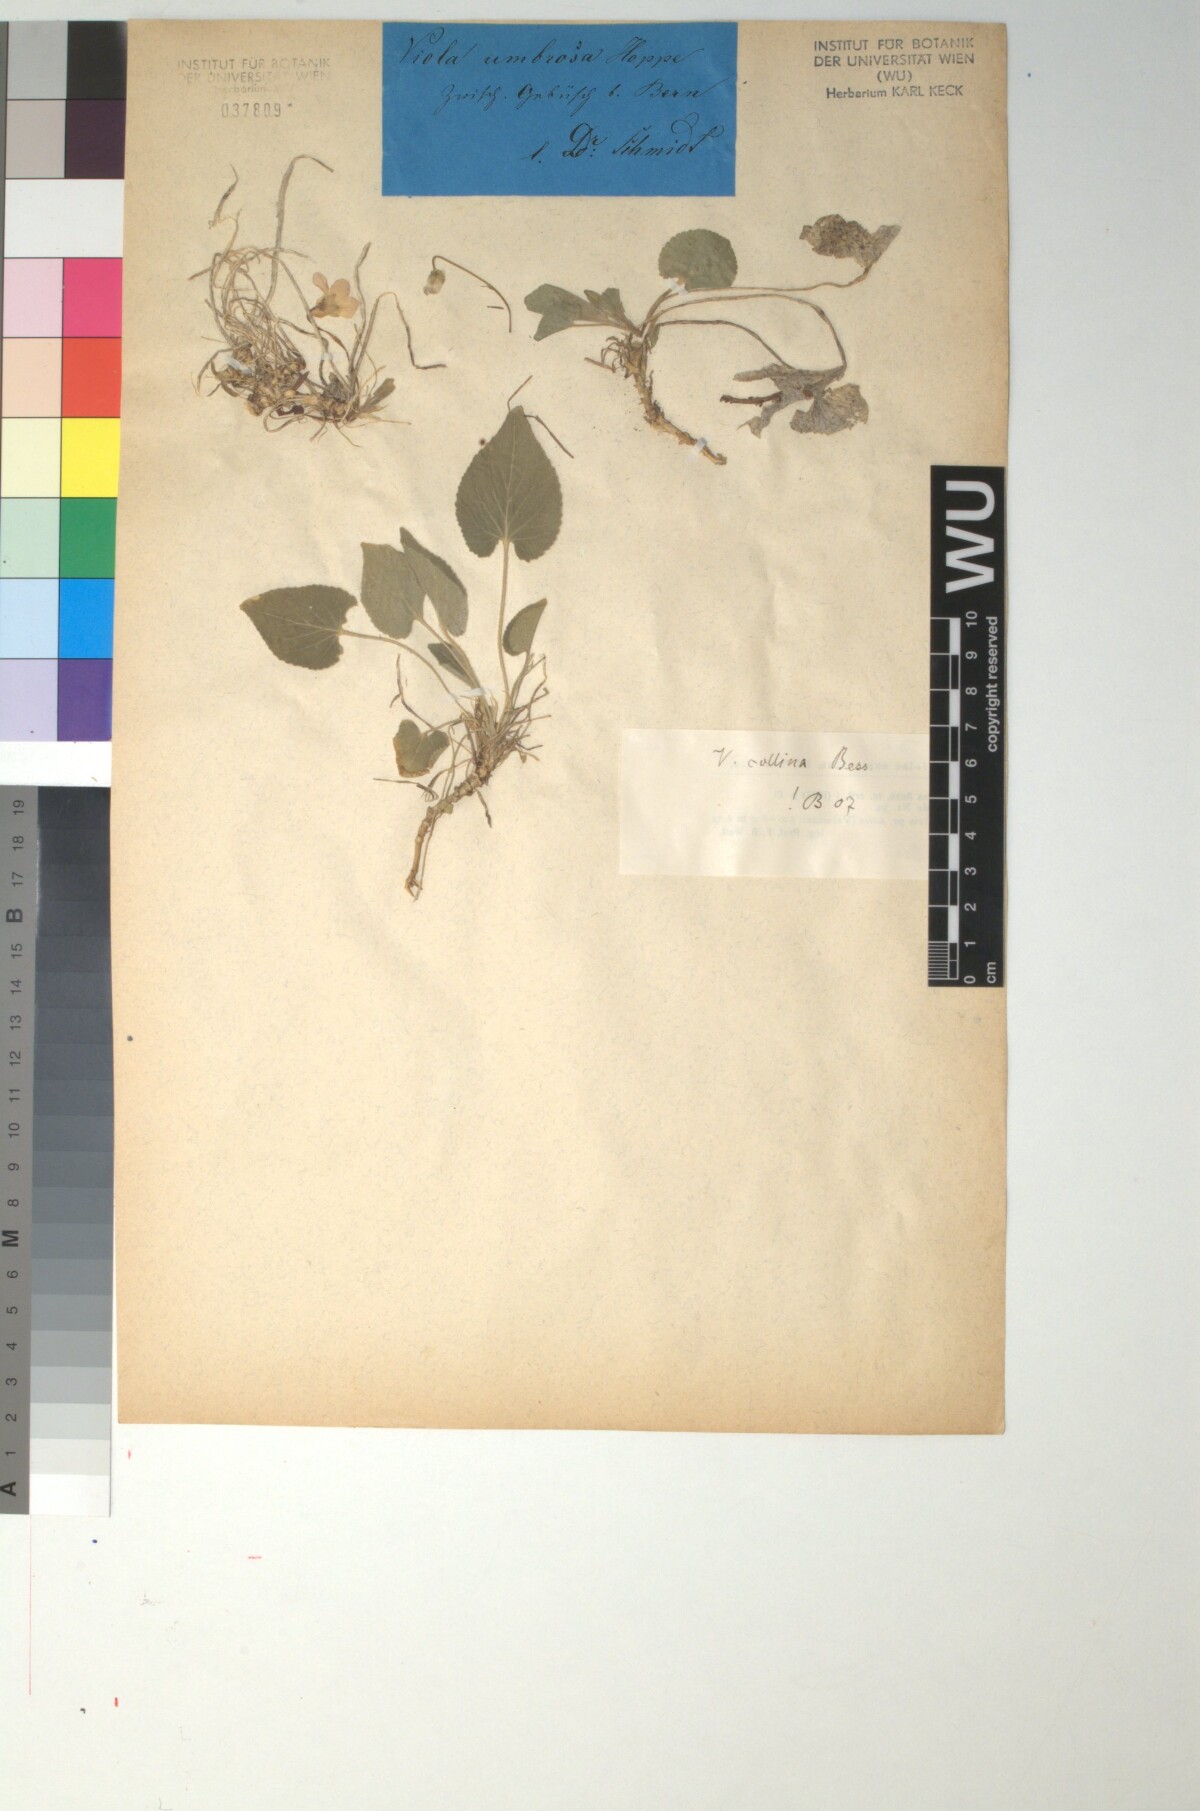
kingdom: Plantae
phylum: Tracheophyta
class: Magnoliopsida
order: Malpighiales
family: Violaceae
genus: Viola
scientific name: Viola collina
